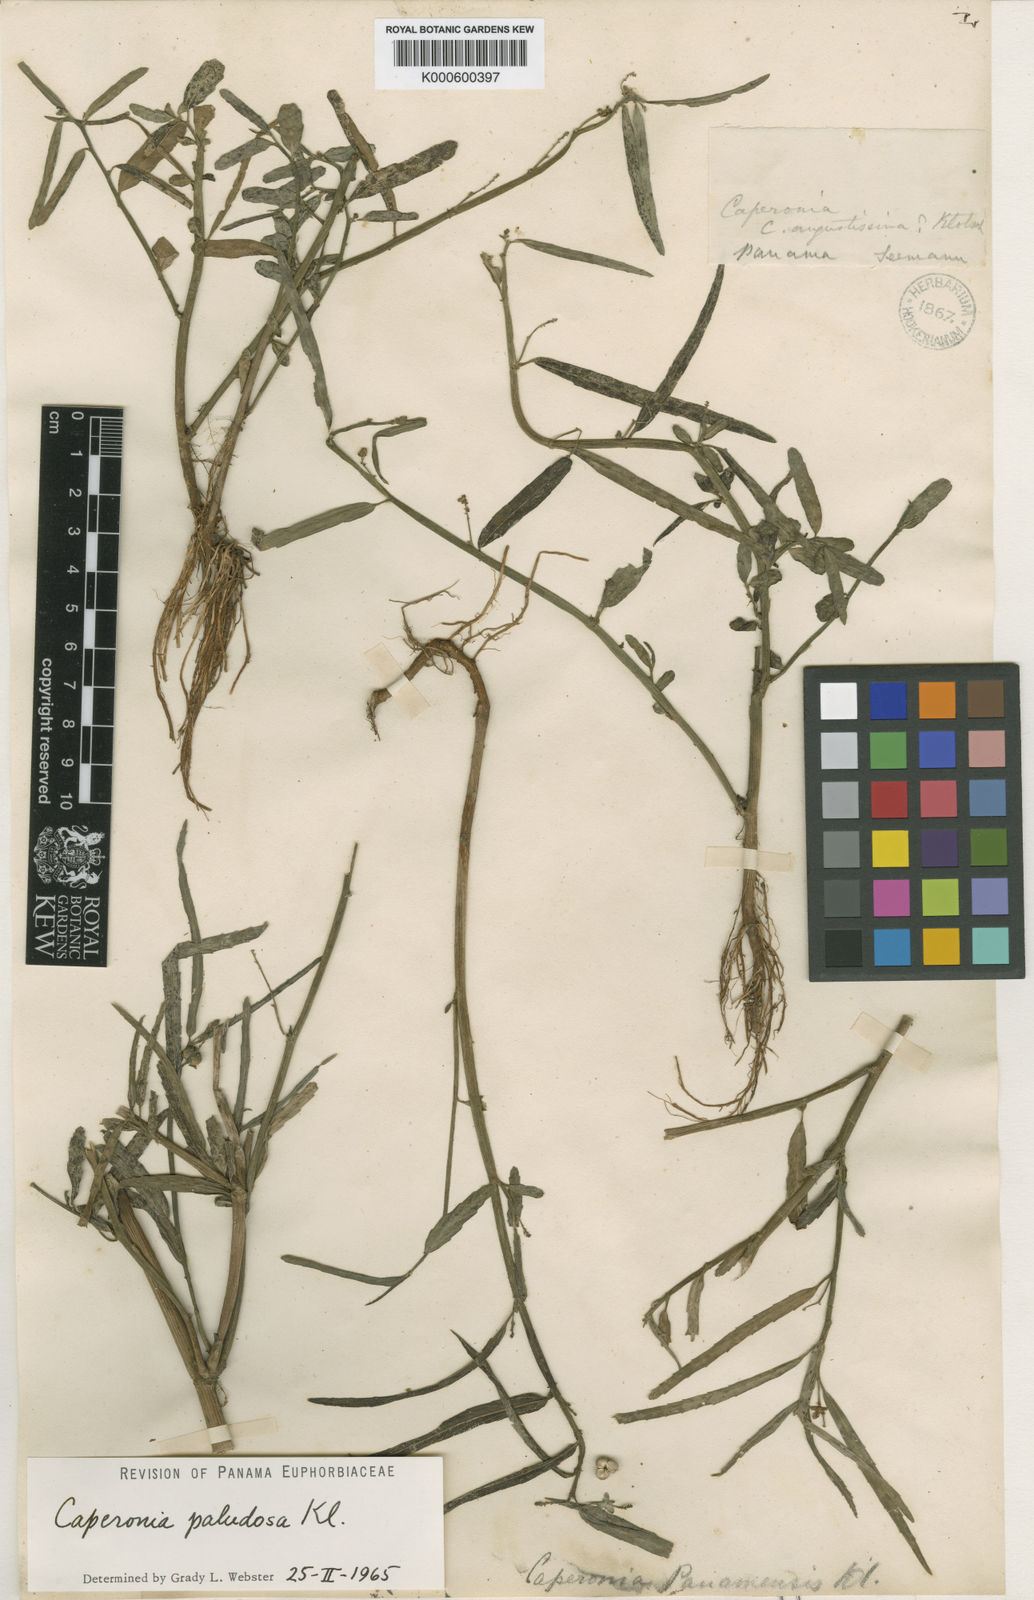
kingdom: Plantae
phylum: Tracheophyta
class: Magnoliopsida
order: Malpighiales
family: Euphorbiaceae
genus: Caperonia
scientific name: Caperonia castaneifolia
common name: Chestnutleaf false croton
